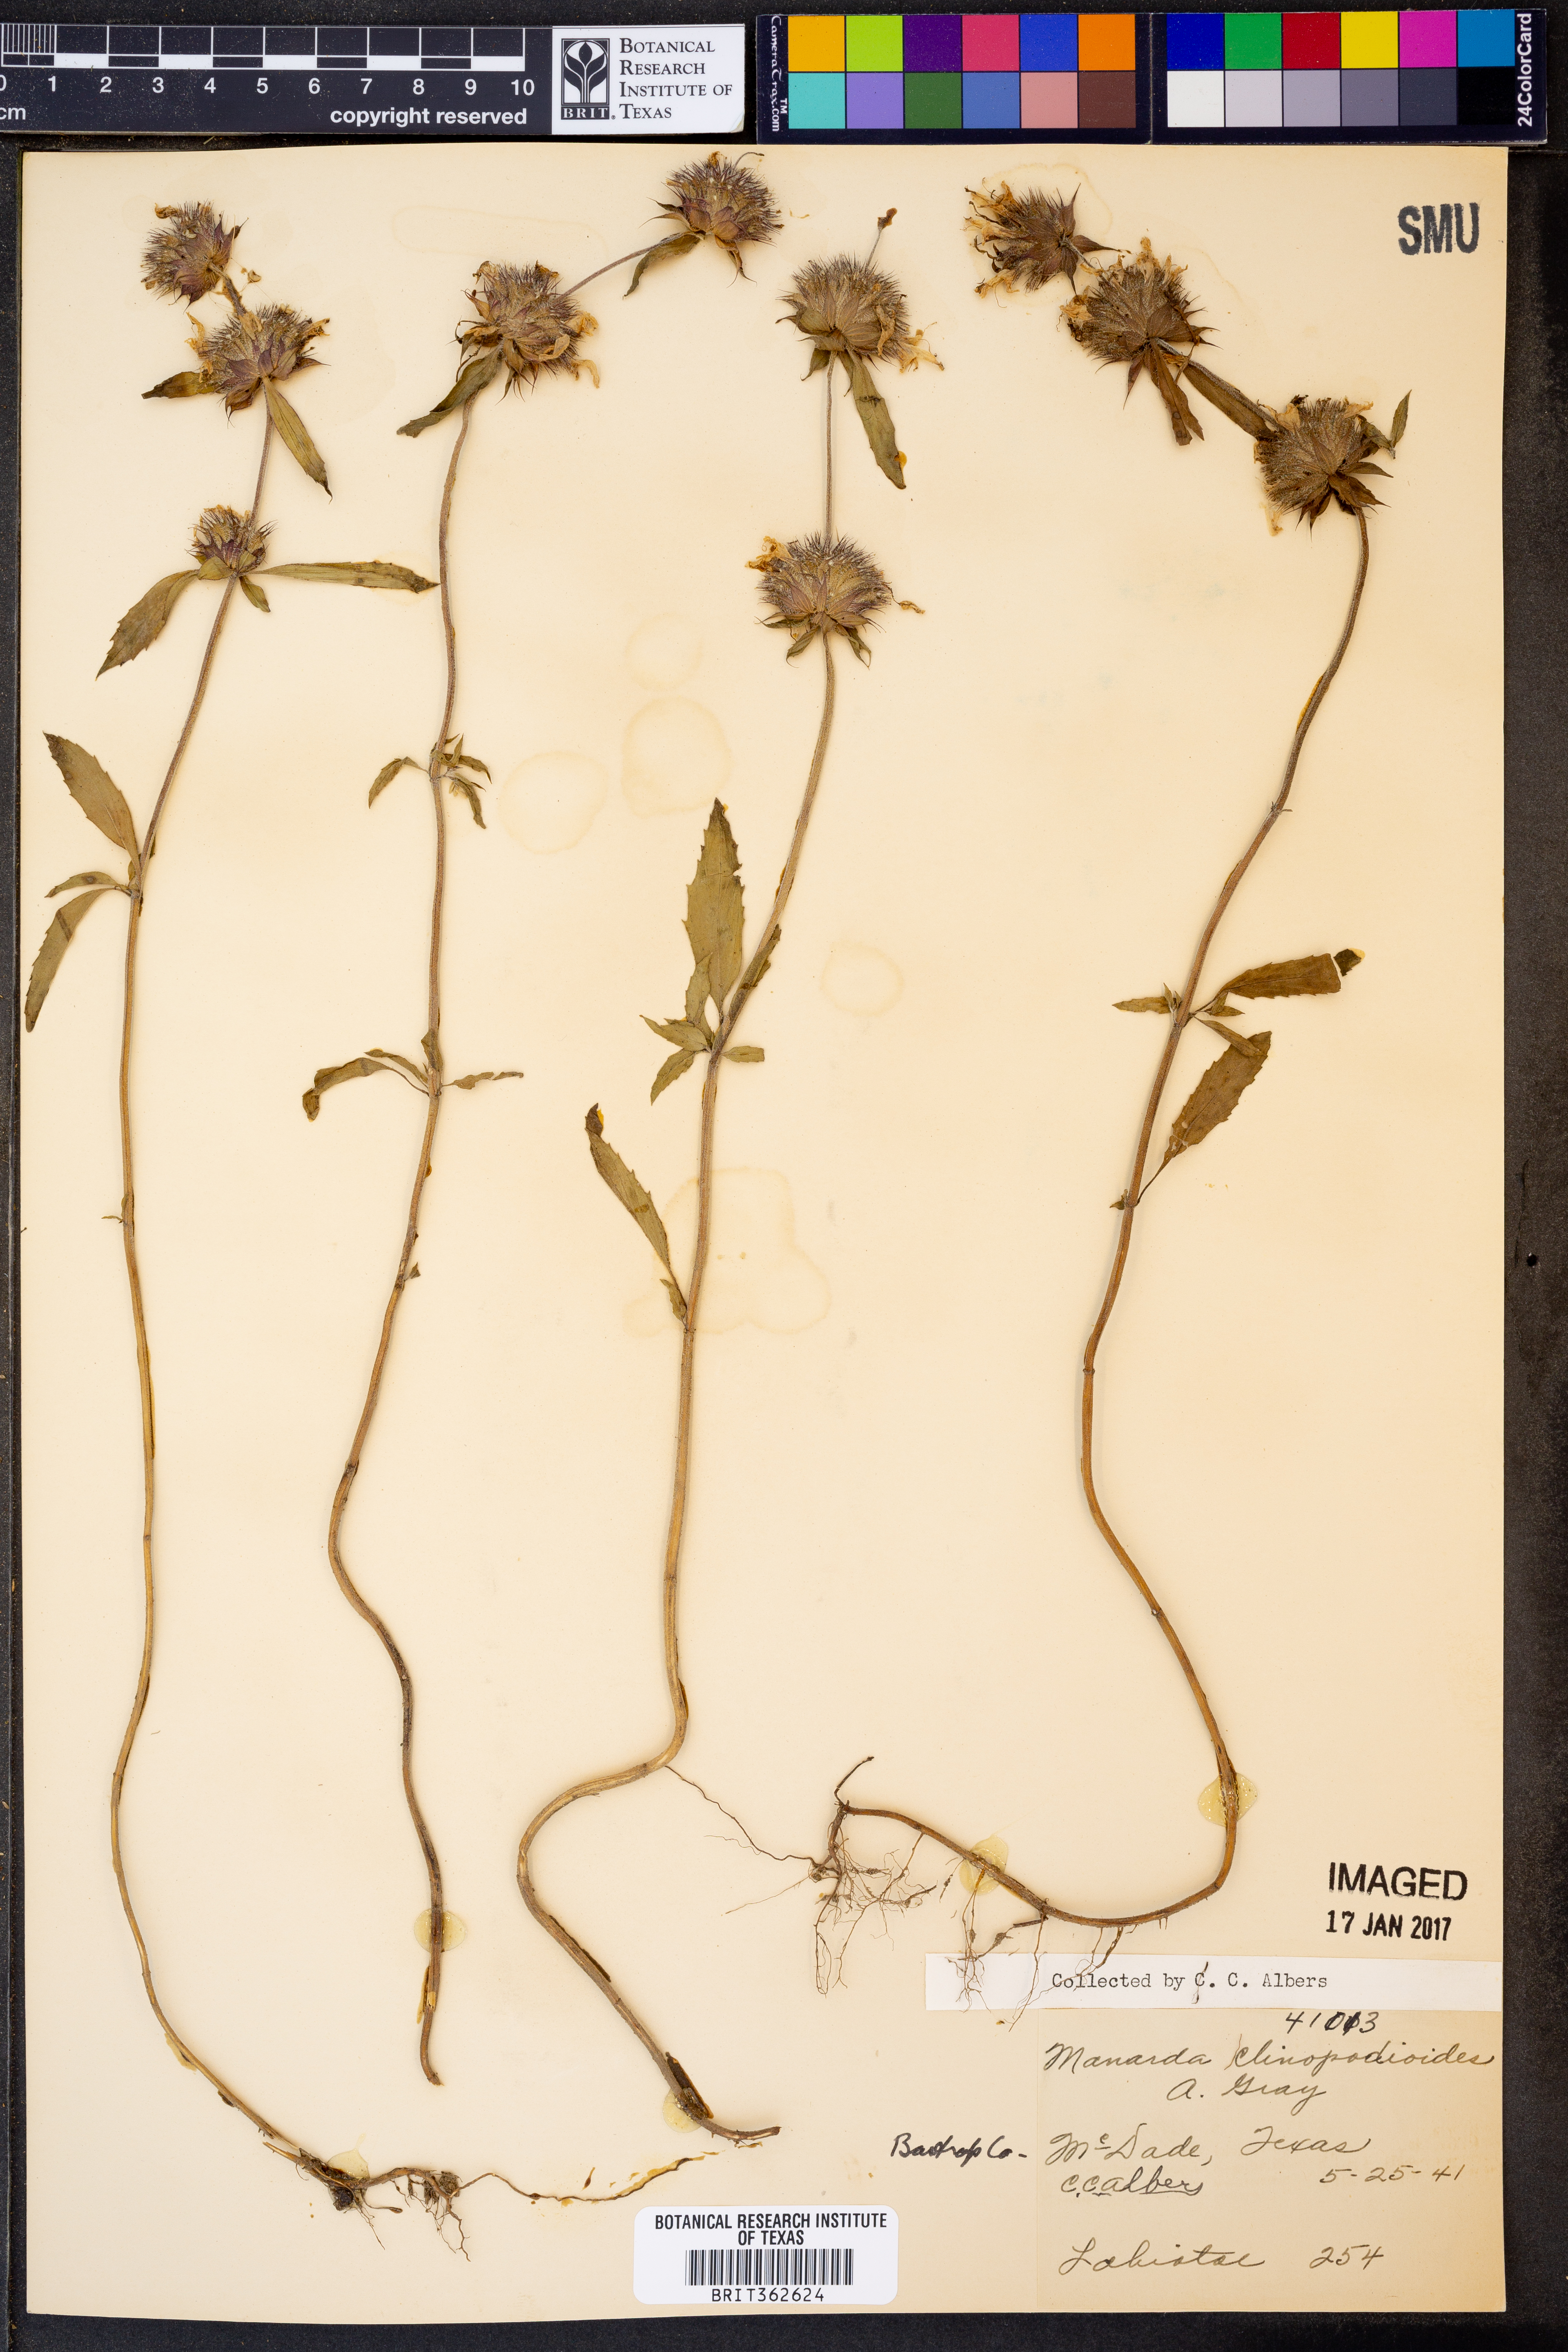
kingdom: Plantae
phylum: Tracheophyta
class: Magnoliopsida
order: Lamiales
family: Lamiaceae
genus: Monarda
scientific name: Monarda clinopodioides
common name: Basil beebalm
